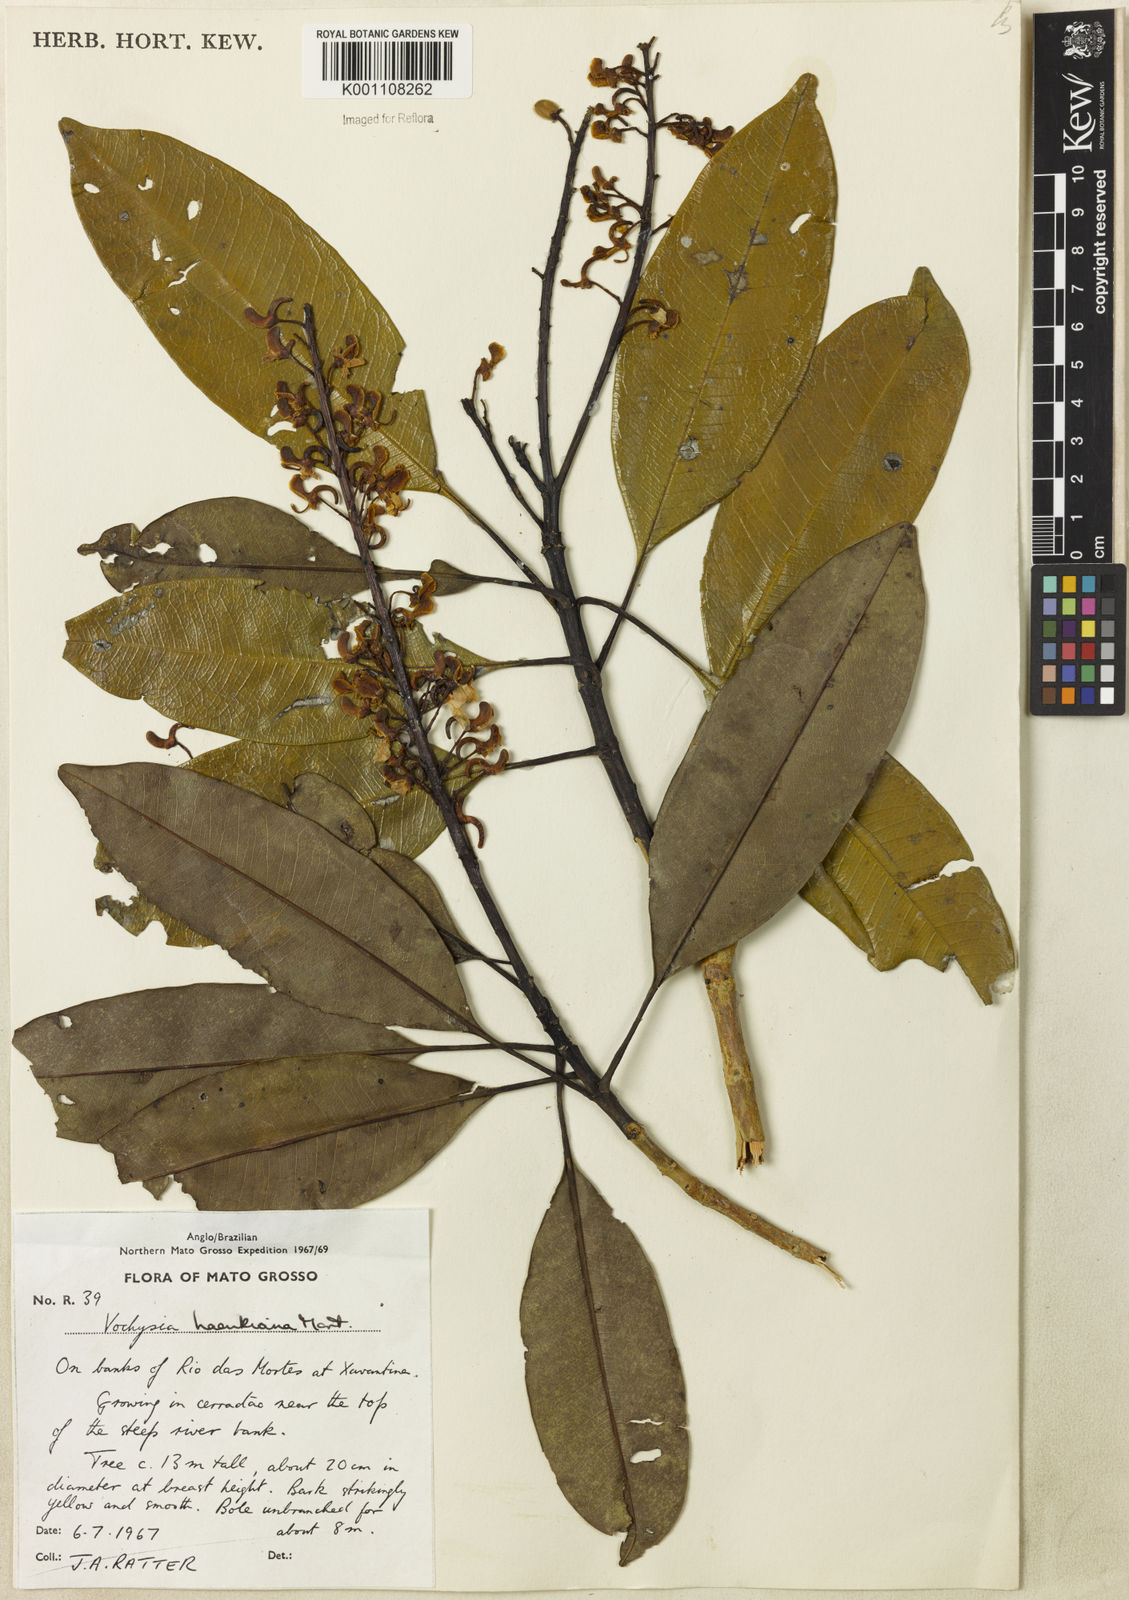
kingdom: Plantae
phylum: Tracheophyta
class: Magnoliopsida
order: Myrtales
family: Vochysiaceae
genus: Vochysia
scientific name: Vochysia haenkeana
